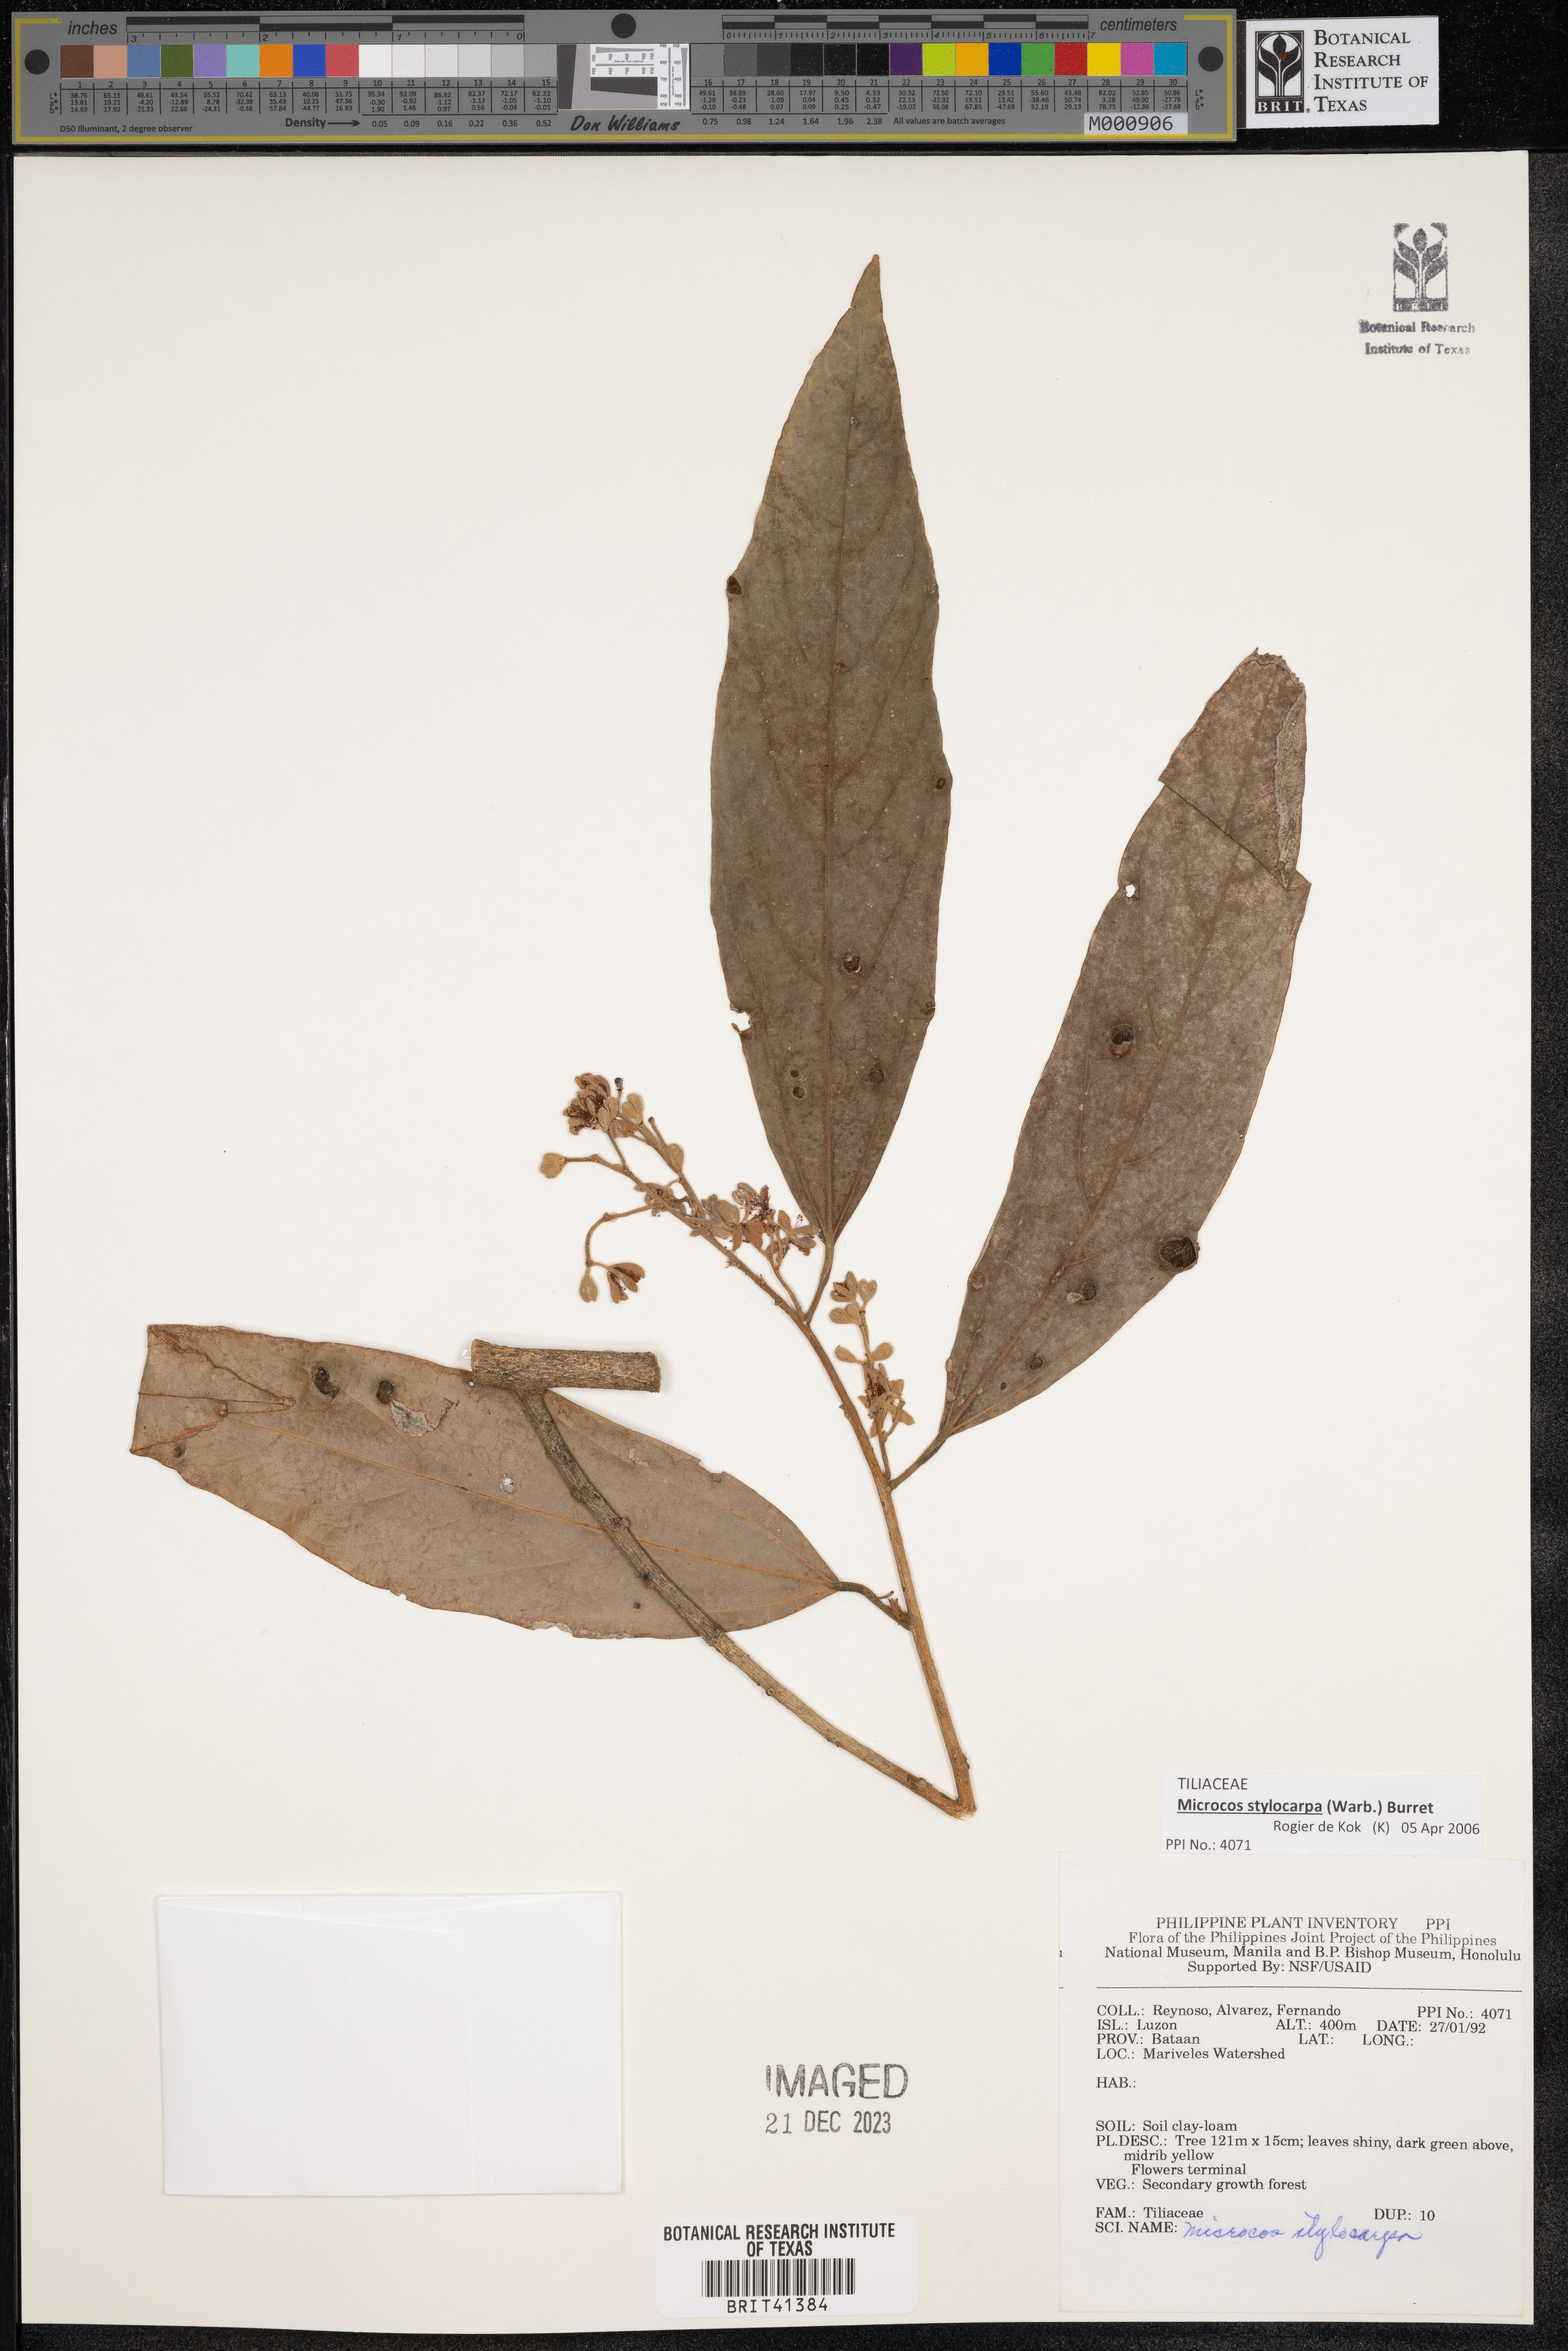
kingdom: Plantae
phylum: Tracheophyta
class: Magnoliopsida
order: Malvales
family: Malvaceae
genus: Microcos
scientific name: Microcos triflora
